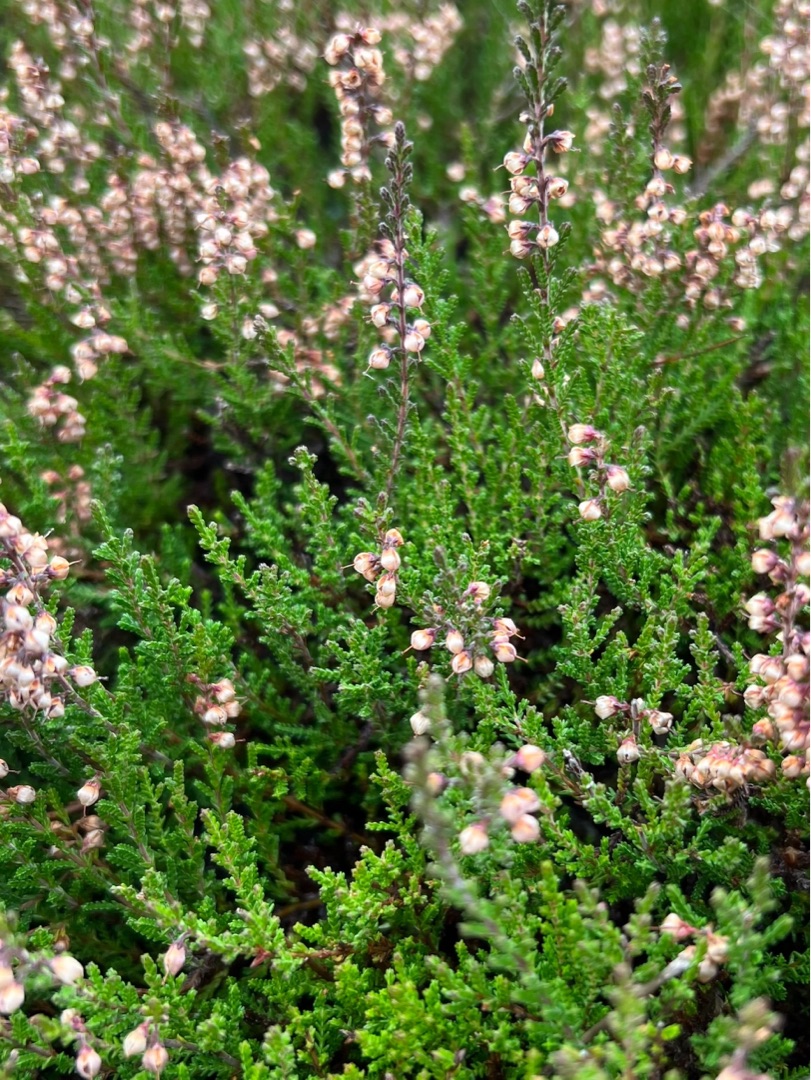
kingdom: Plantae
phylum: Tracheophyta
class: Magnoliopsida
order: Ericales
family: Ericaceae
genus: Calluna
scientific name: Calluna vulgaris
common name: Hedelyng
